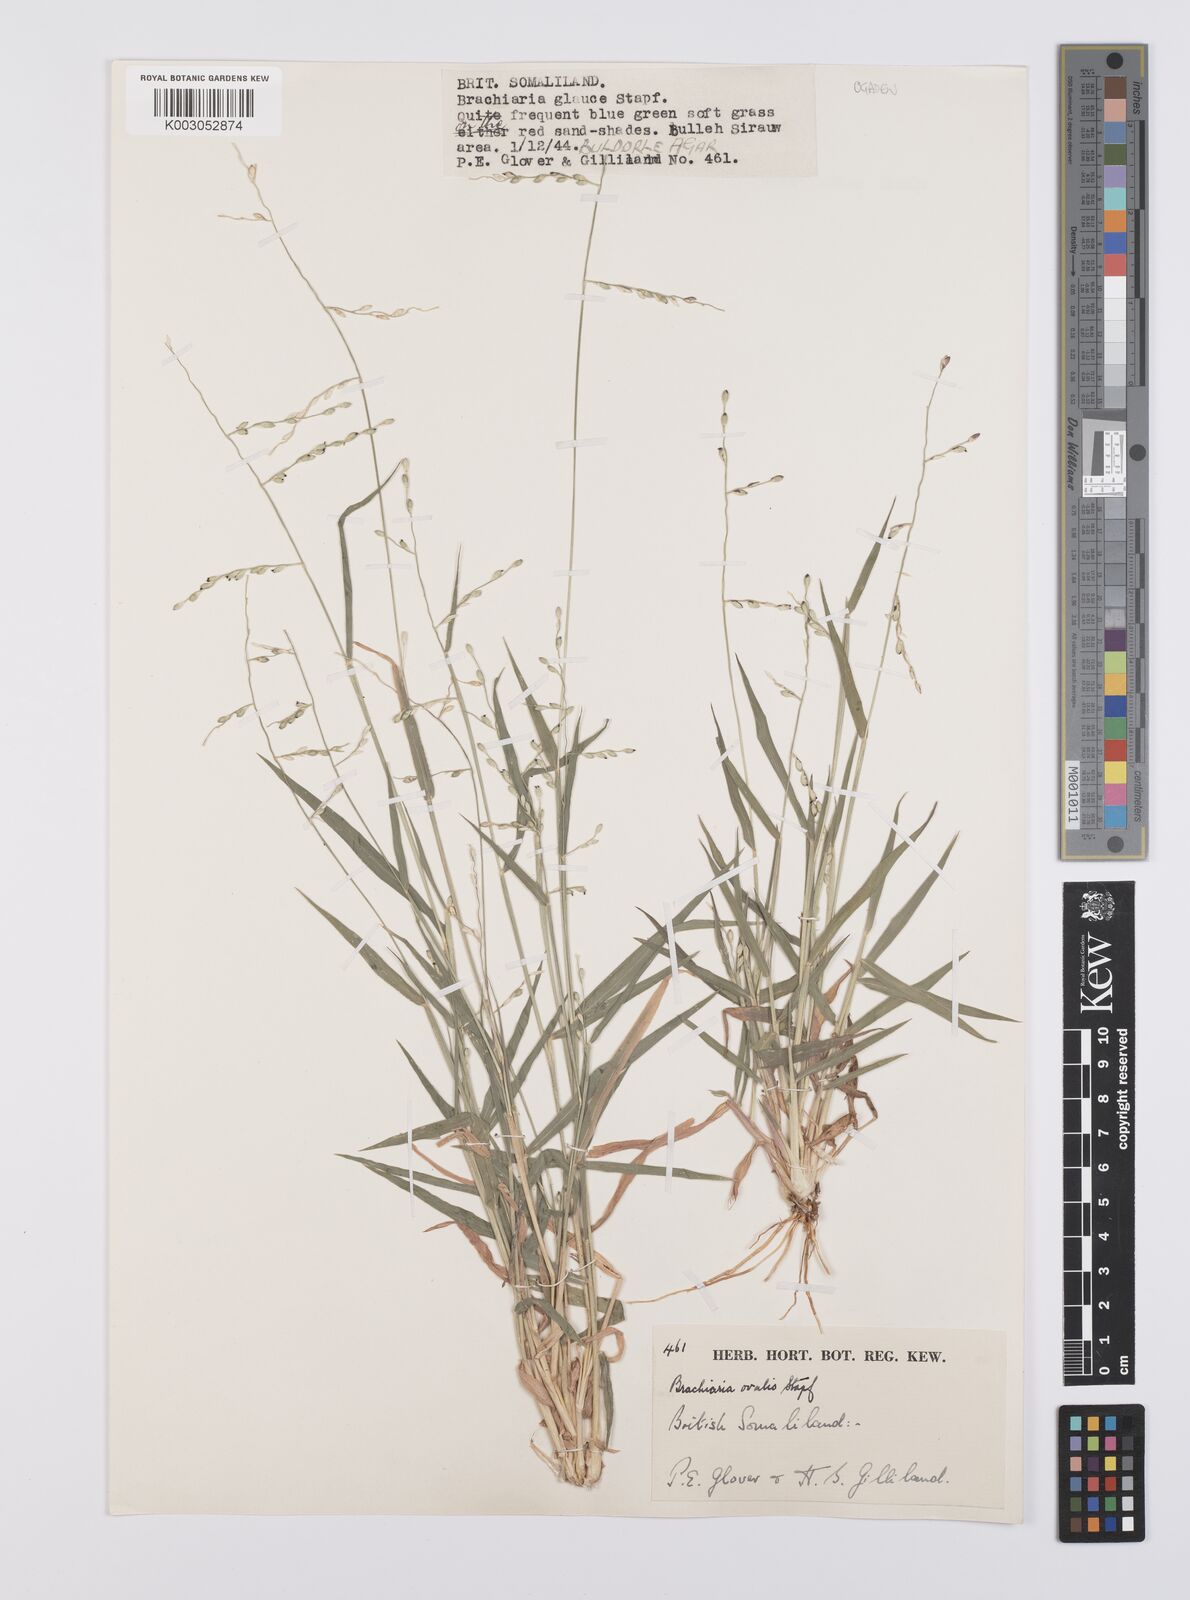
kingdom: Plantae
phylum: Tracheophyta
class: Liliopsida
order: Poales
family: Poaceae
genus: Urochloa
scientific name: Urochloa ovalis
